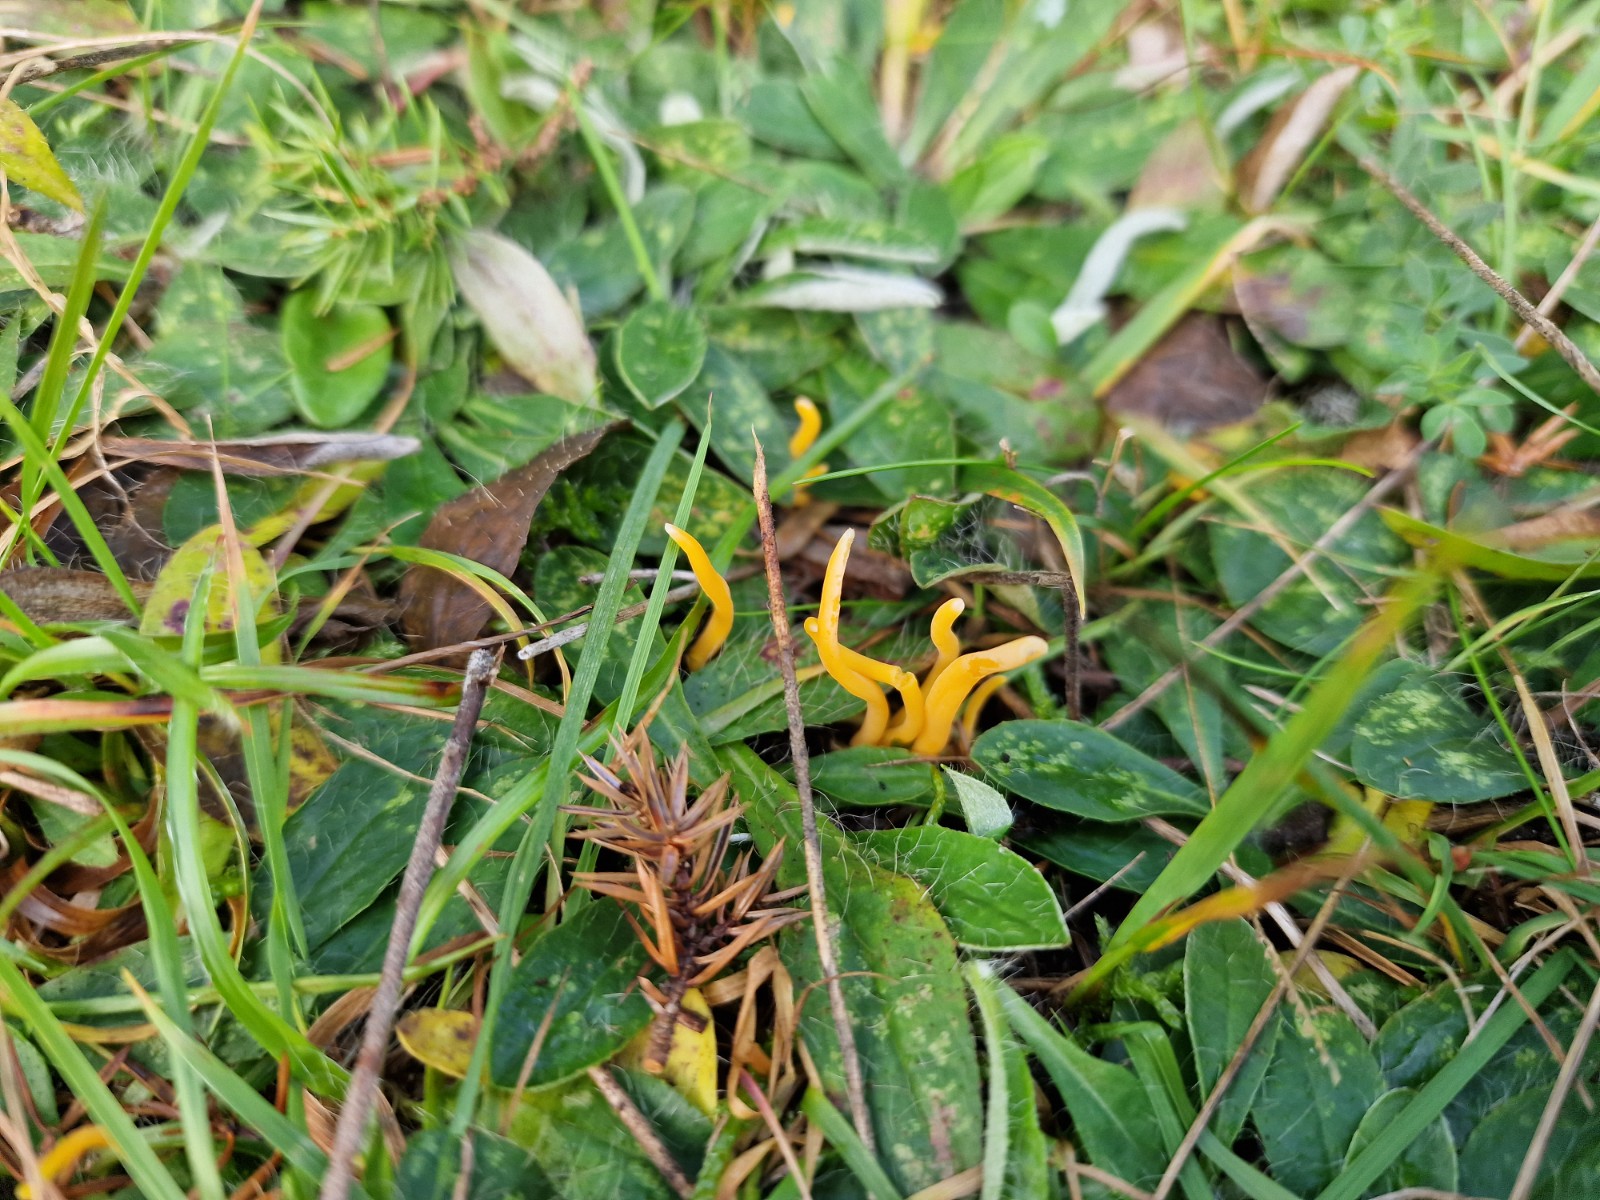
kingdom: Fungi
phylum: Basidiomycota
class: Agaricomycetes
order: Agaricales
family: Clavariaceae
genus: Clavulinopsis
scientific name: Clavulinopsis luteoalba
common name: abrikos-køllesvamp
